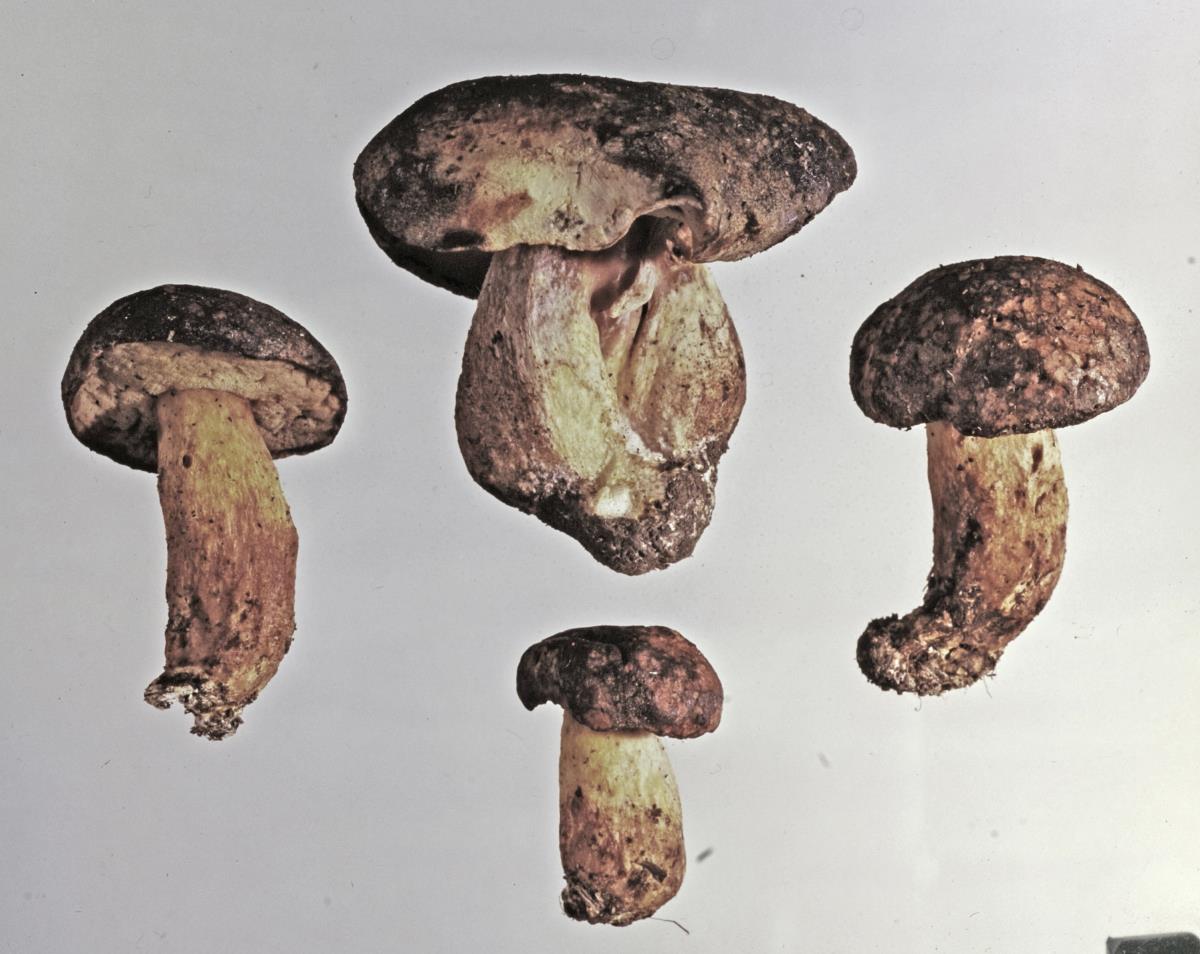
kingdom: Fungi
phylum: Basidiomycota
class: Agaricomycetes
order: Boletales
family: Boletaceae
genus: Xerocomus
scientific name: Xerocomus leptospermi
